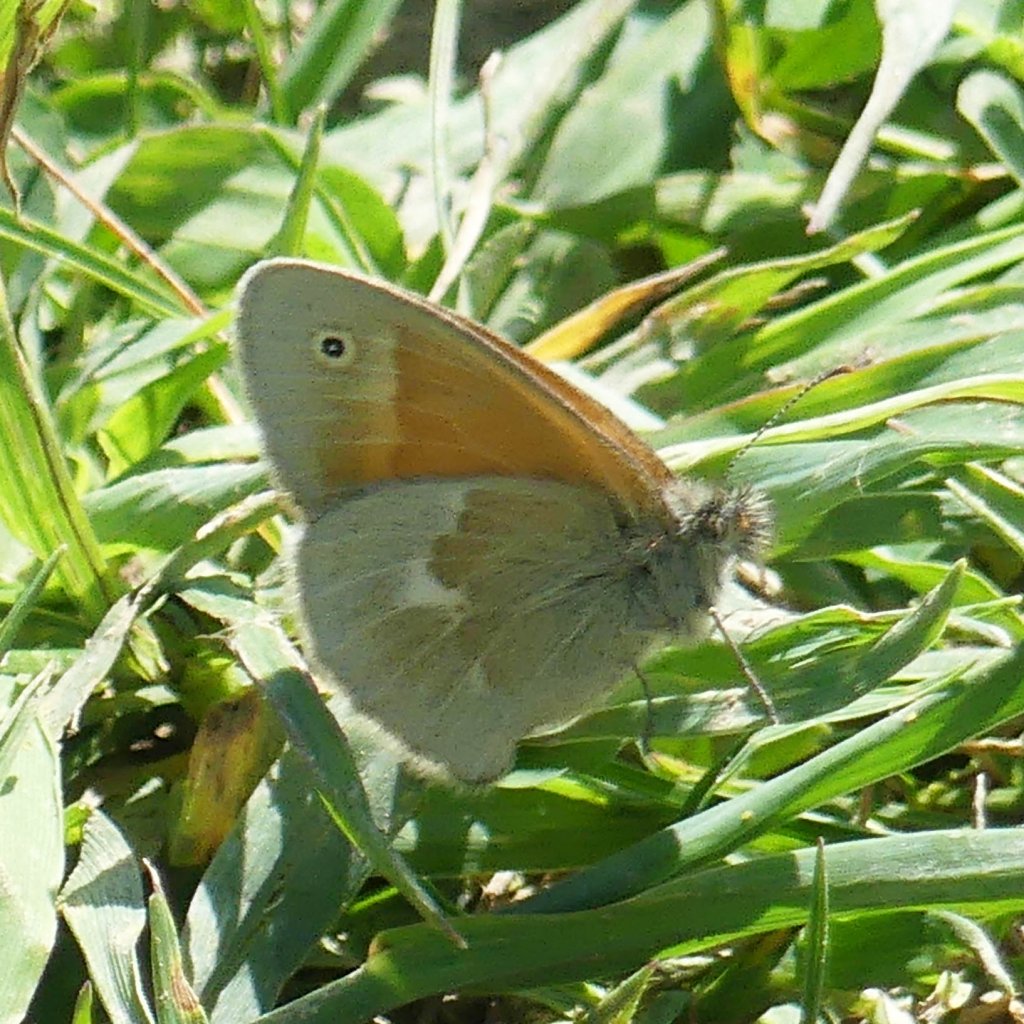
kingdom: Animalia
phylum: Arthropoda
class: Insecta
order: Lepidoptera
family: Nymphalidae
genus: Coenonympha
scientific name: Coenonympha tullia
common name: Large Heath
